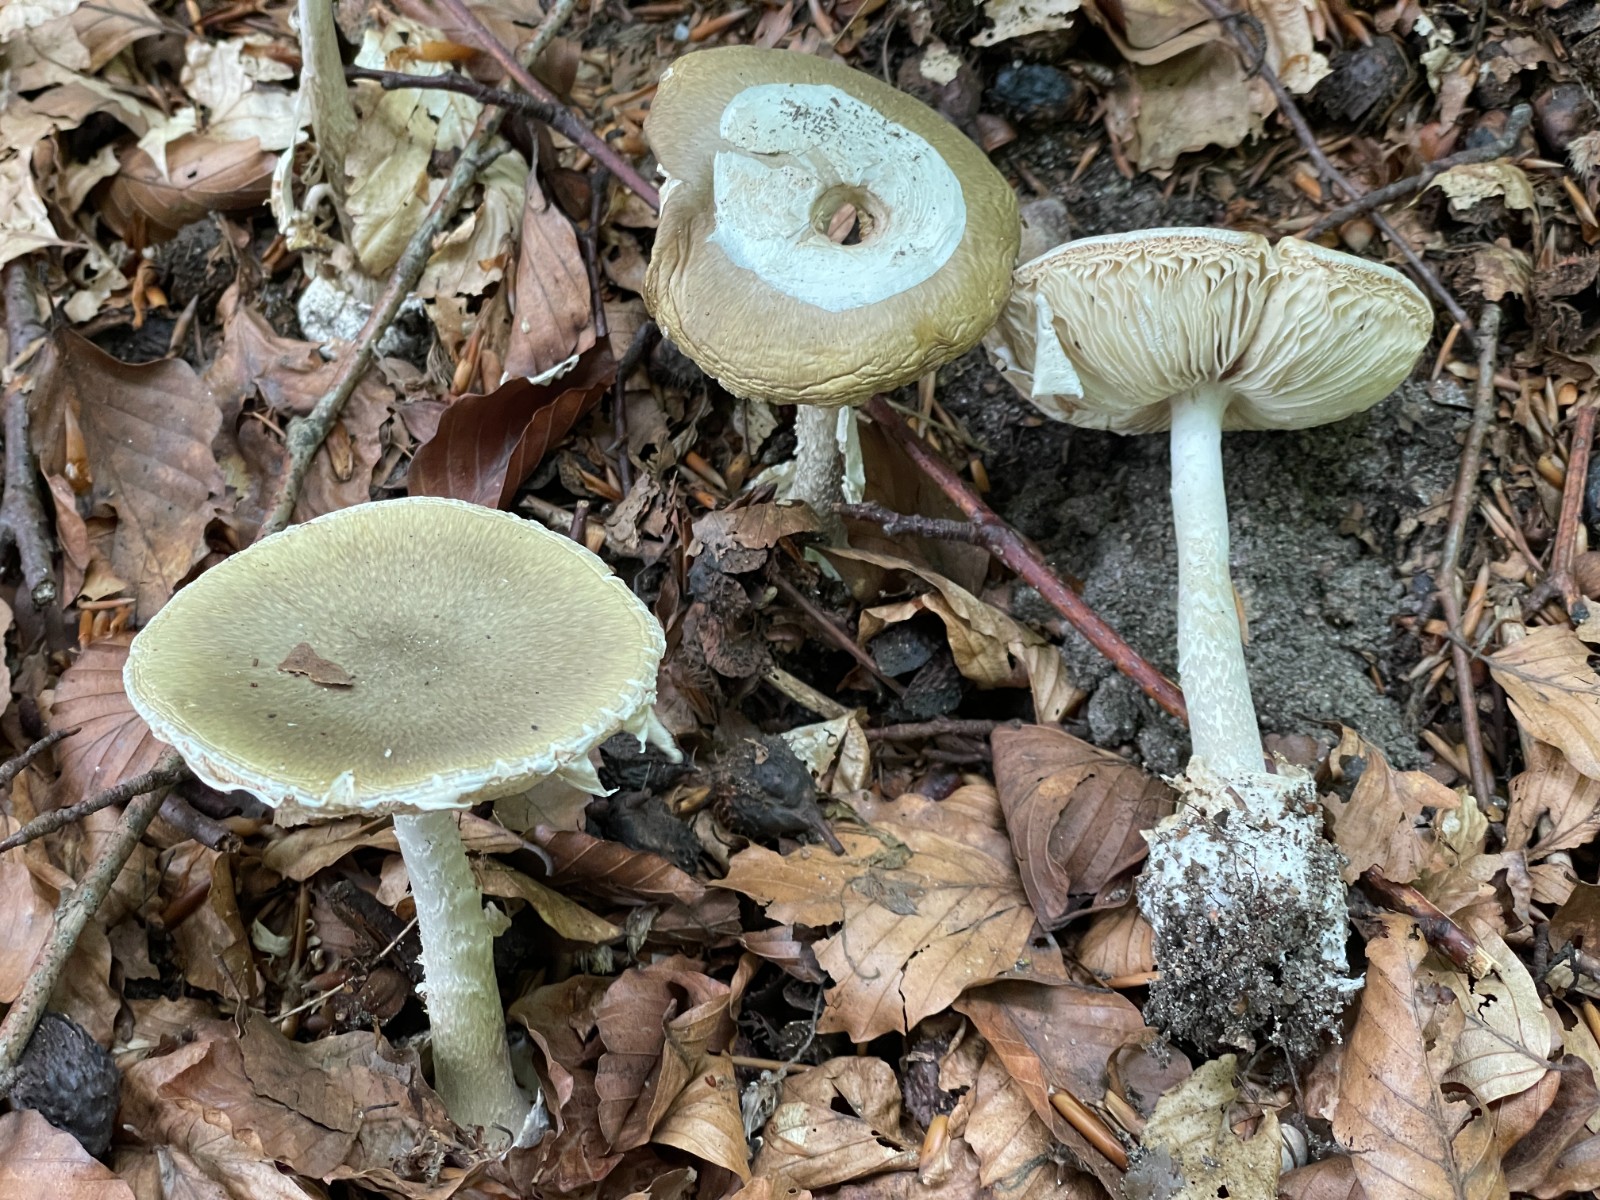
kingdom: Fungi
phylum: Basidiomycota
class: Agaricomycetes
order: Agaricales
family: Amanitaceae
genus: Amanita
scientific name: Amanita phalloides
